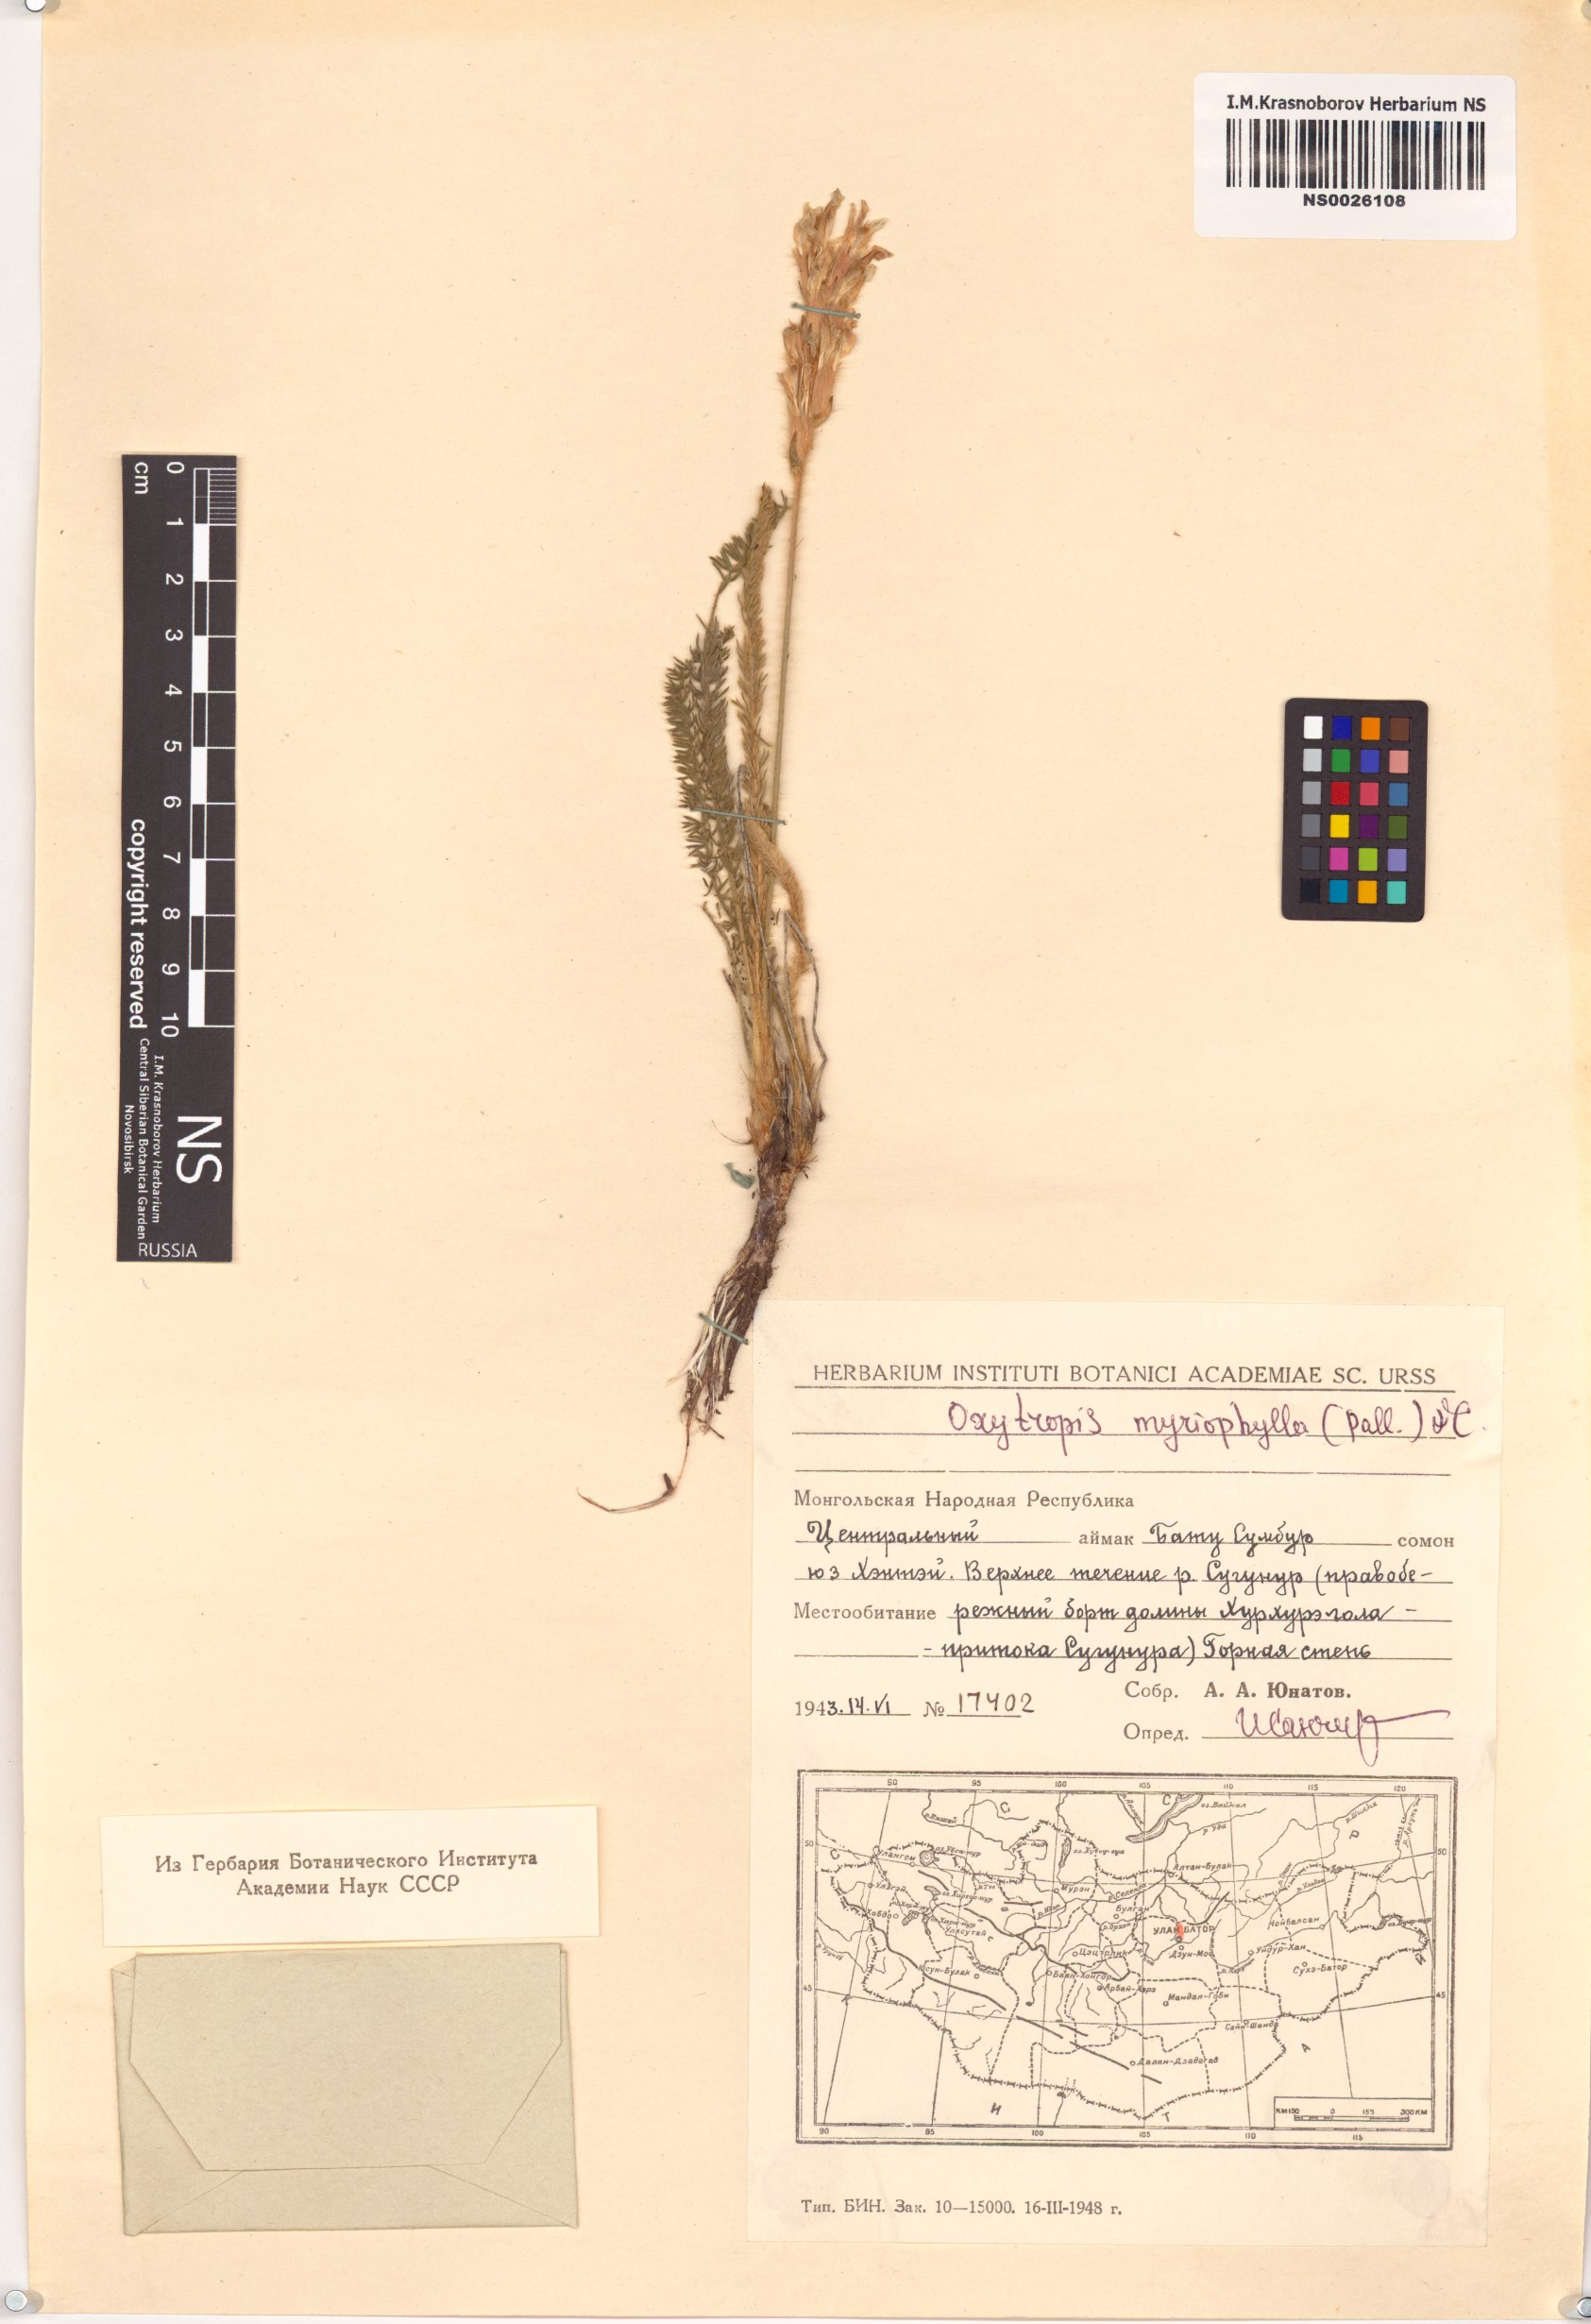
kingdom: Plantae
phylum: Tracheophyta
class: Magnoliopsida
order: Fabales
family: Fabaceae
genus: Oxytropis
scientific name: Oxytropis myriophylla
